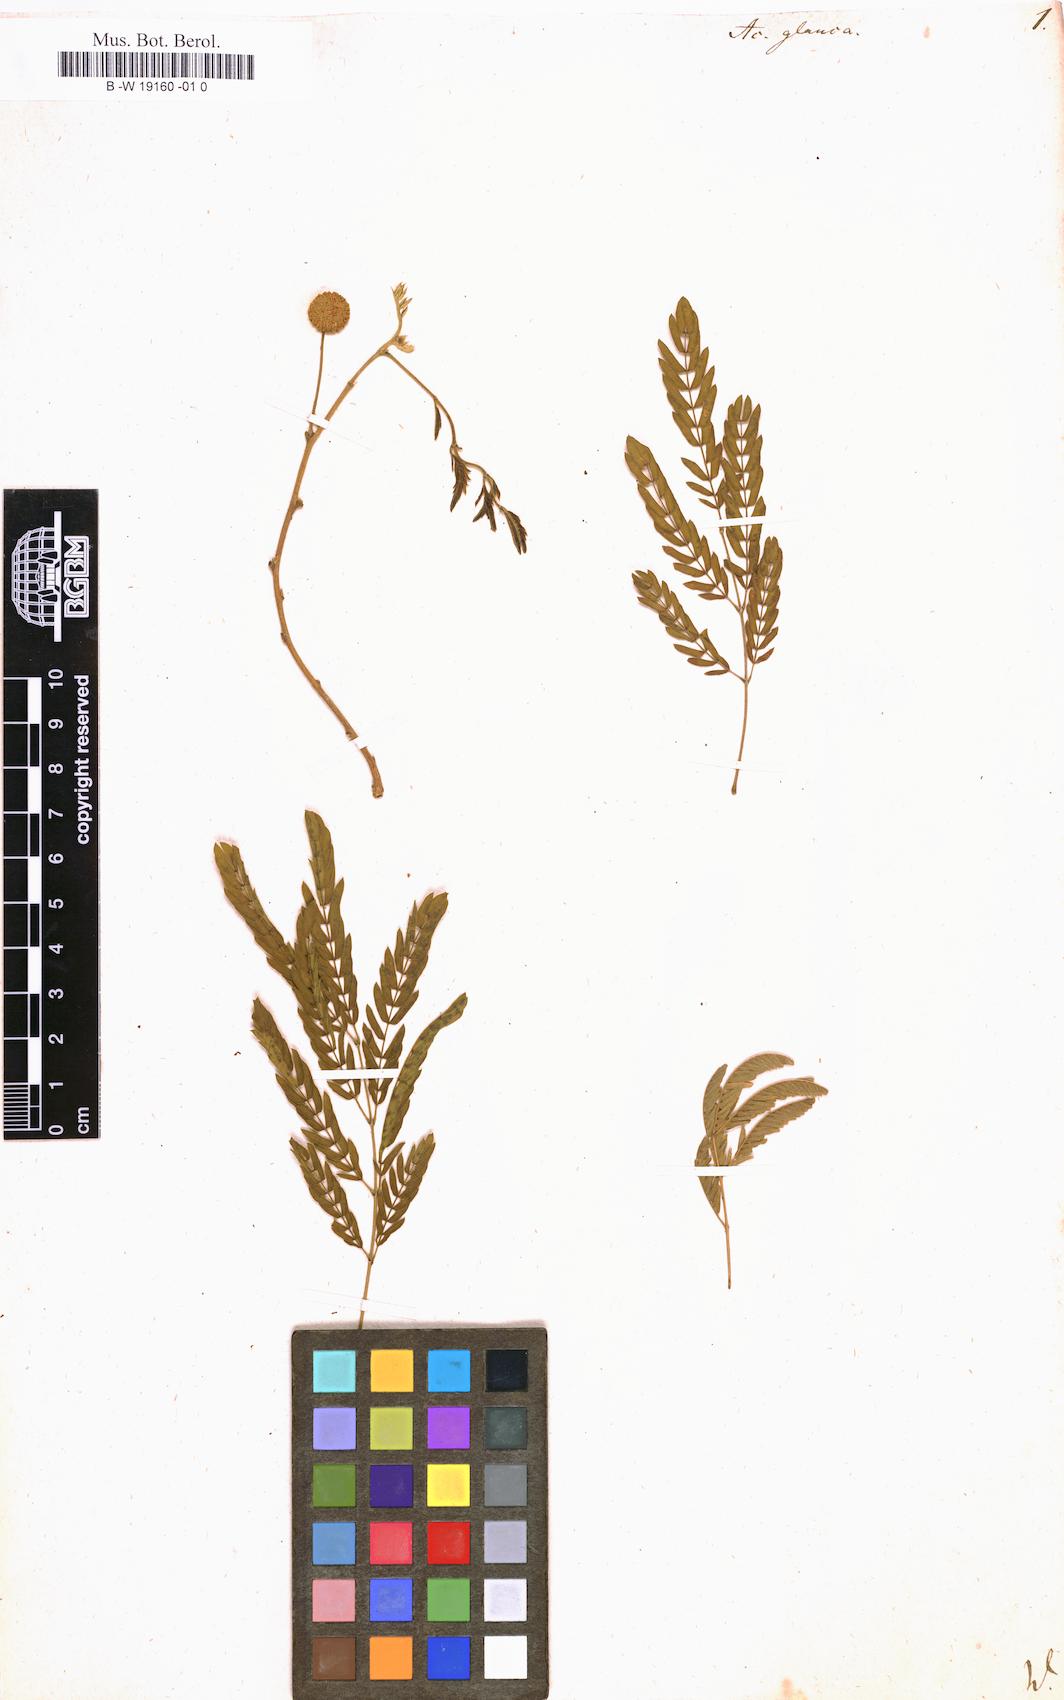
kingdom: Plantae
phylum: Tracheophyta
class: Magnoliopsida
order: Fabales
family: Fabaceae
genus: Acaciella
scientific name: Acaciella glauca
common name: Redwood
